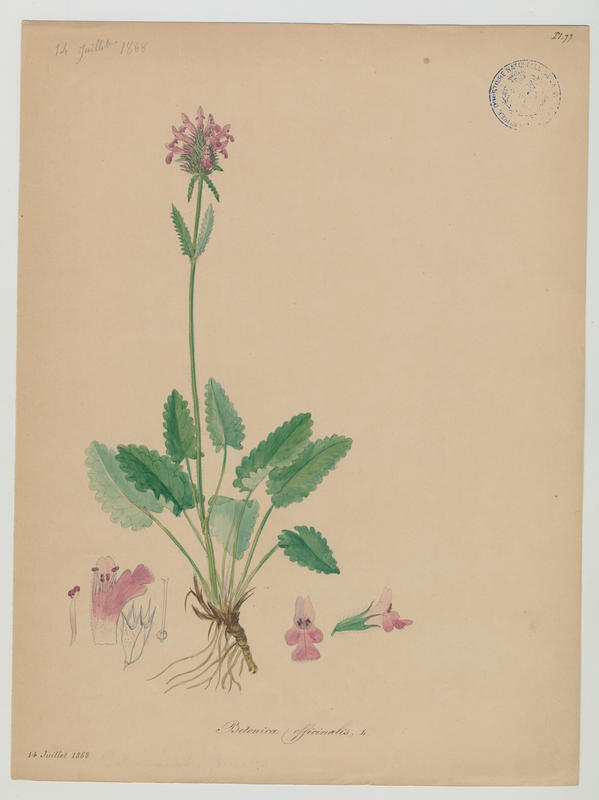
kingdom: Plantae
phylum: Tracheophyta
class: Magnoliopsida
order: Lamiales
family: Lamiaceae
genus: Betonica
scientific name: Betonica officinalis
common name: Bishop's-wort
